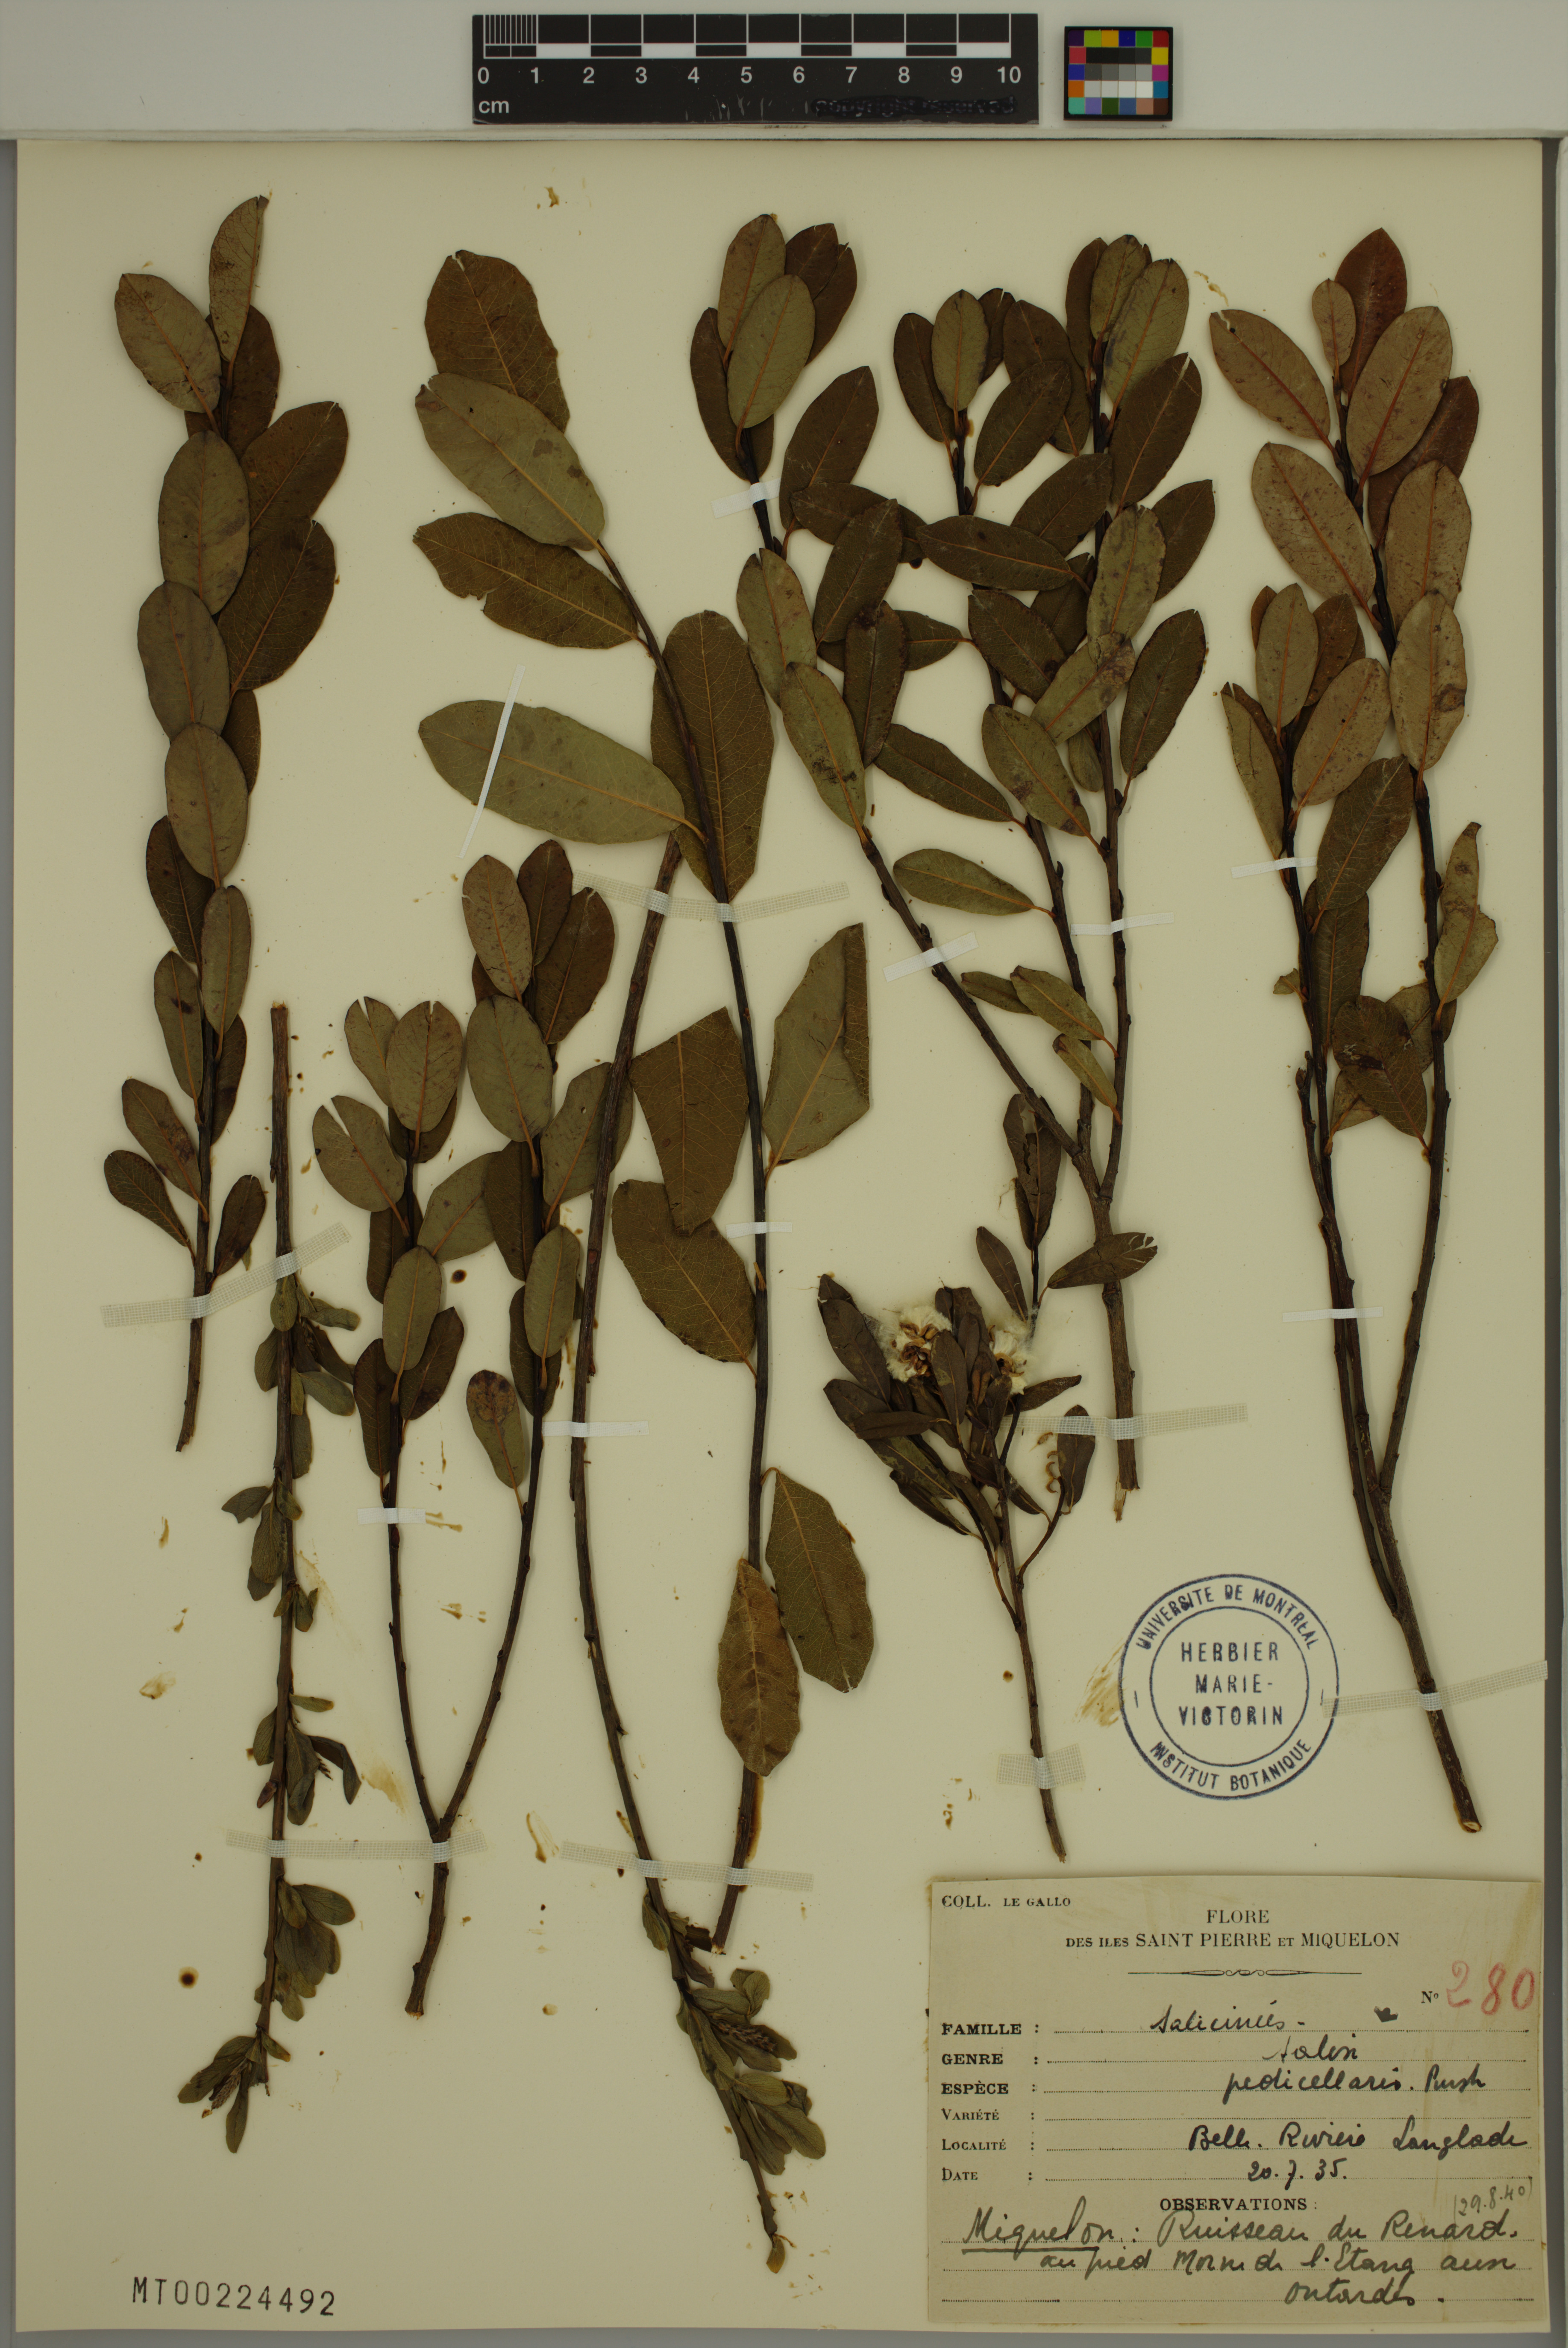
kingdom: Plantae
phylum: Tracheophyta
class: Magnoliopsida
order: Malpighiales
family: Salicaceae
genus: Salix
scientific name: Salix pedicellaris
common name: Bog willow
